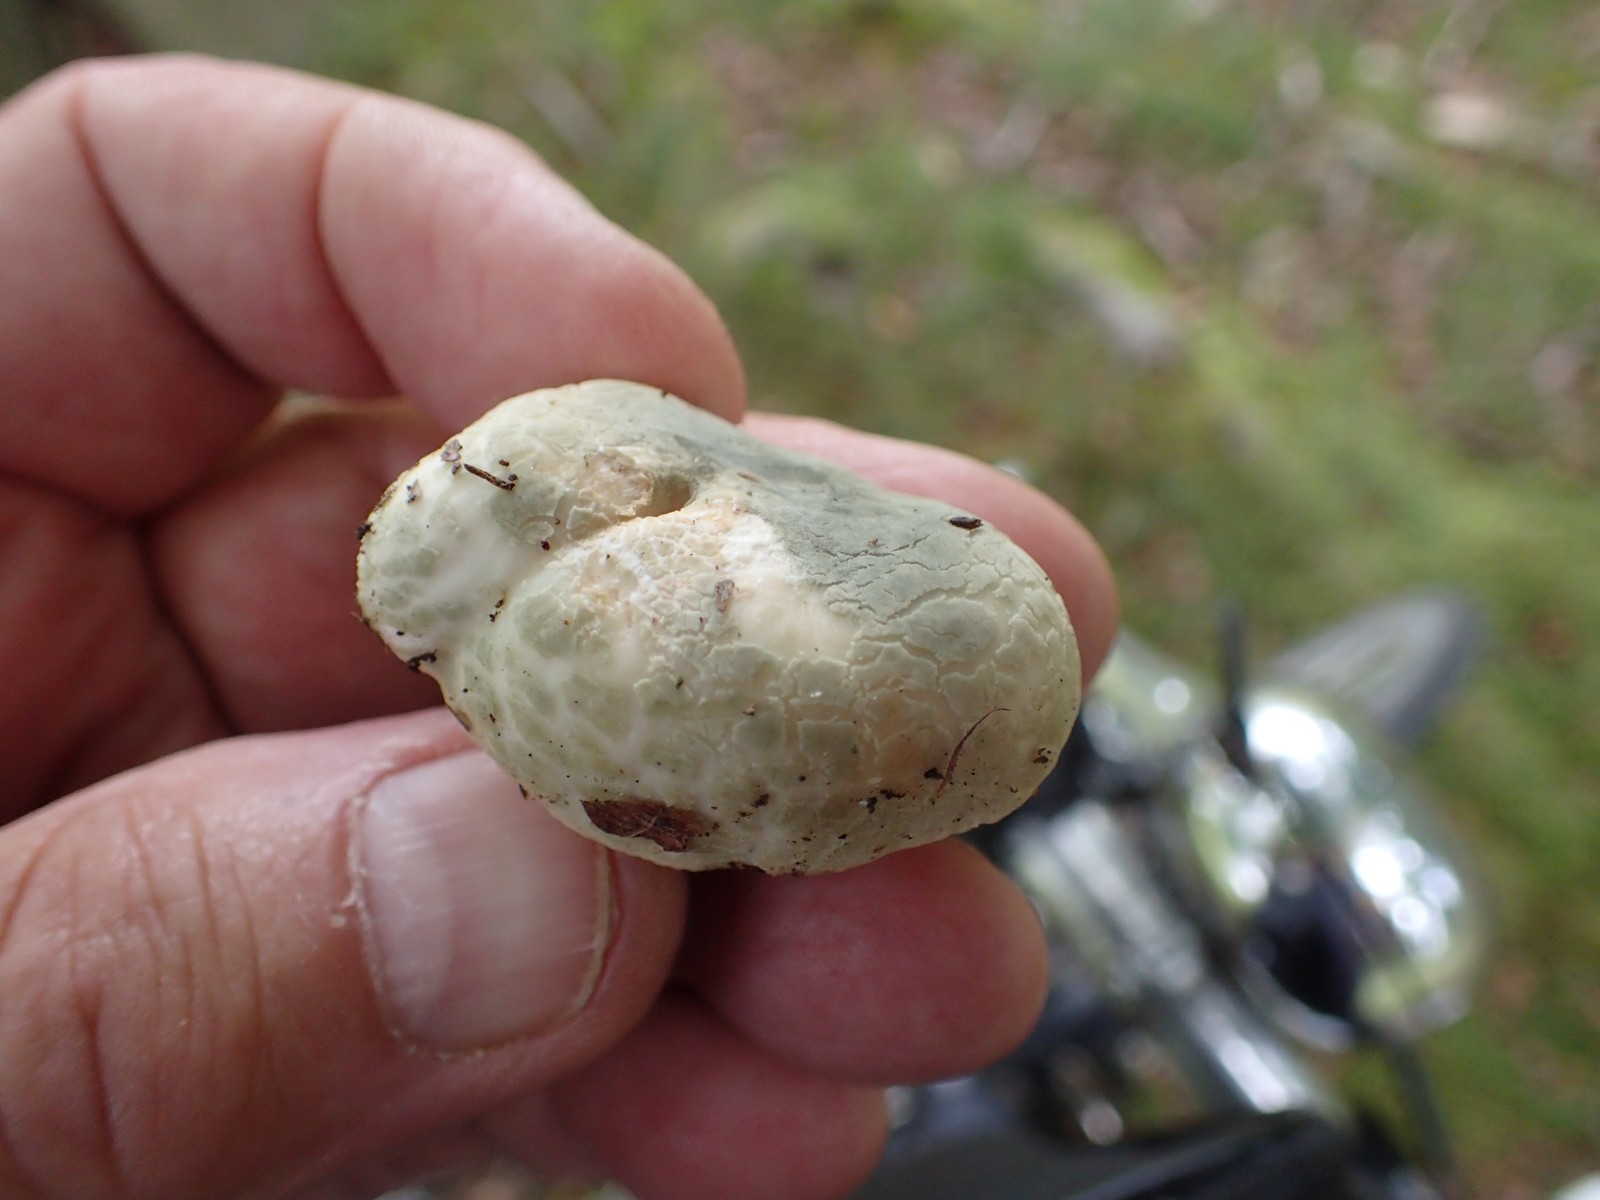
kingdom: Fungi
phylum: Basidiomycota
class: Agaricomycetes
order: Russulales
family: Russulaceae
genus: Russula
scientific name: Russula virescens
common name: spanskgrøn skørhat
